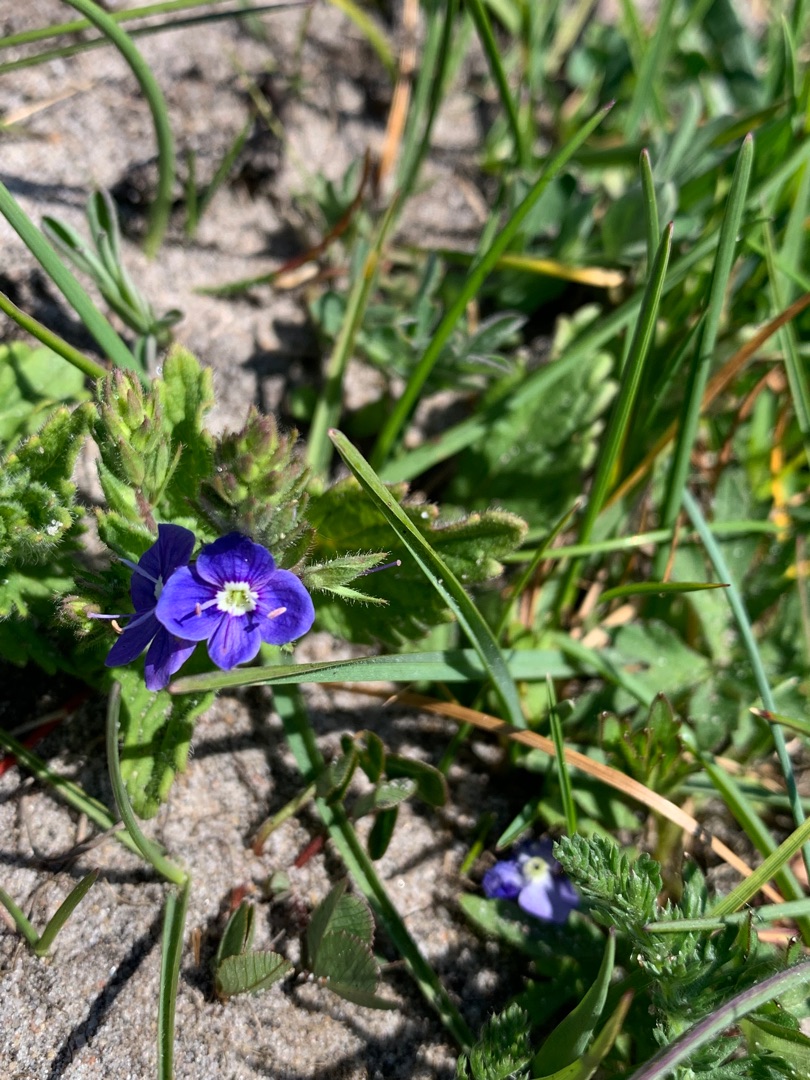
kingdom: Plantae
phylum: Tracheophyta
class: Magnoliopsida
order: Lamiales
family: Plantaginaceae
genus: Veronica
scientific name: Veronica chamaedrys
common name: Tveskægget ærenpris
